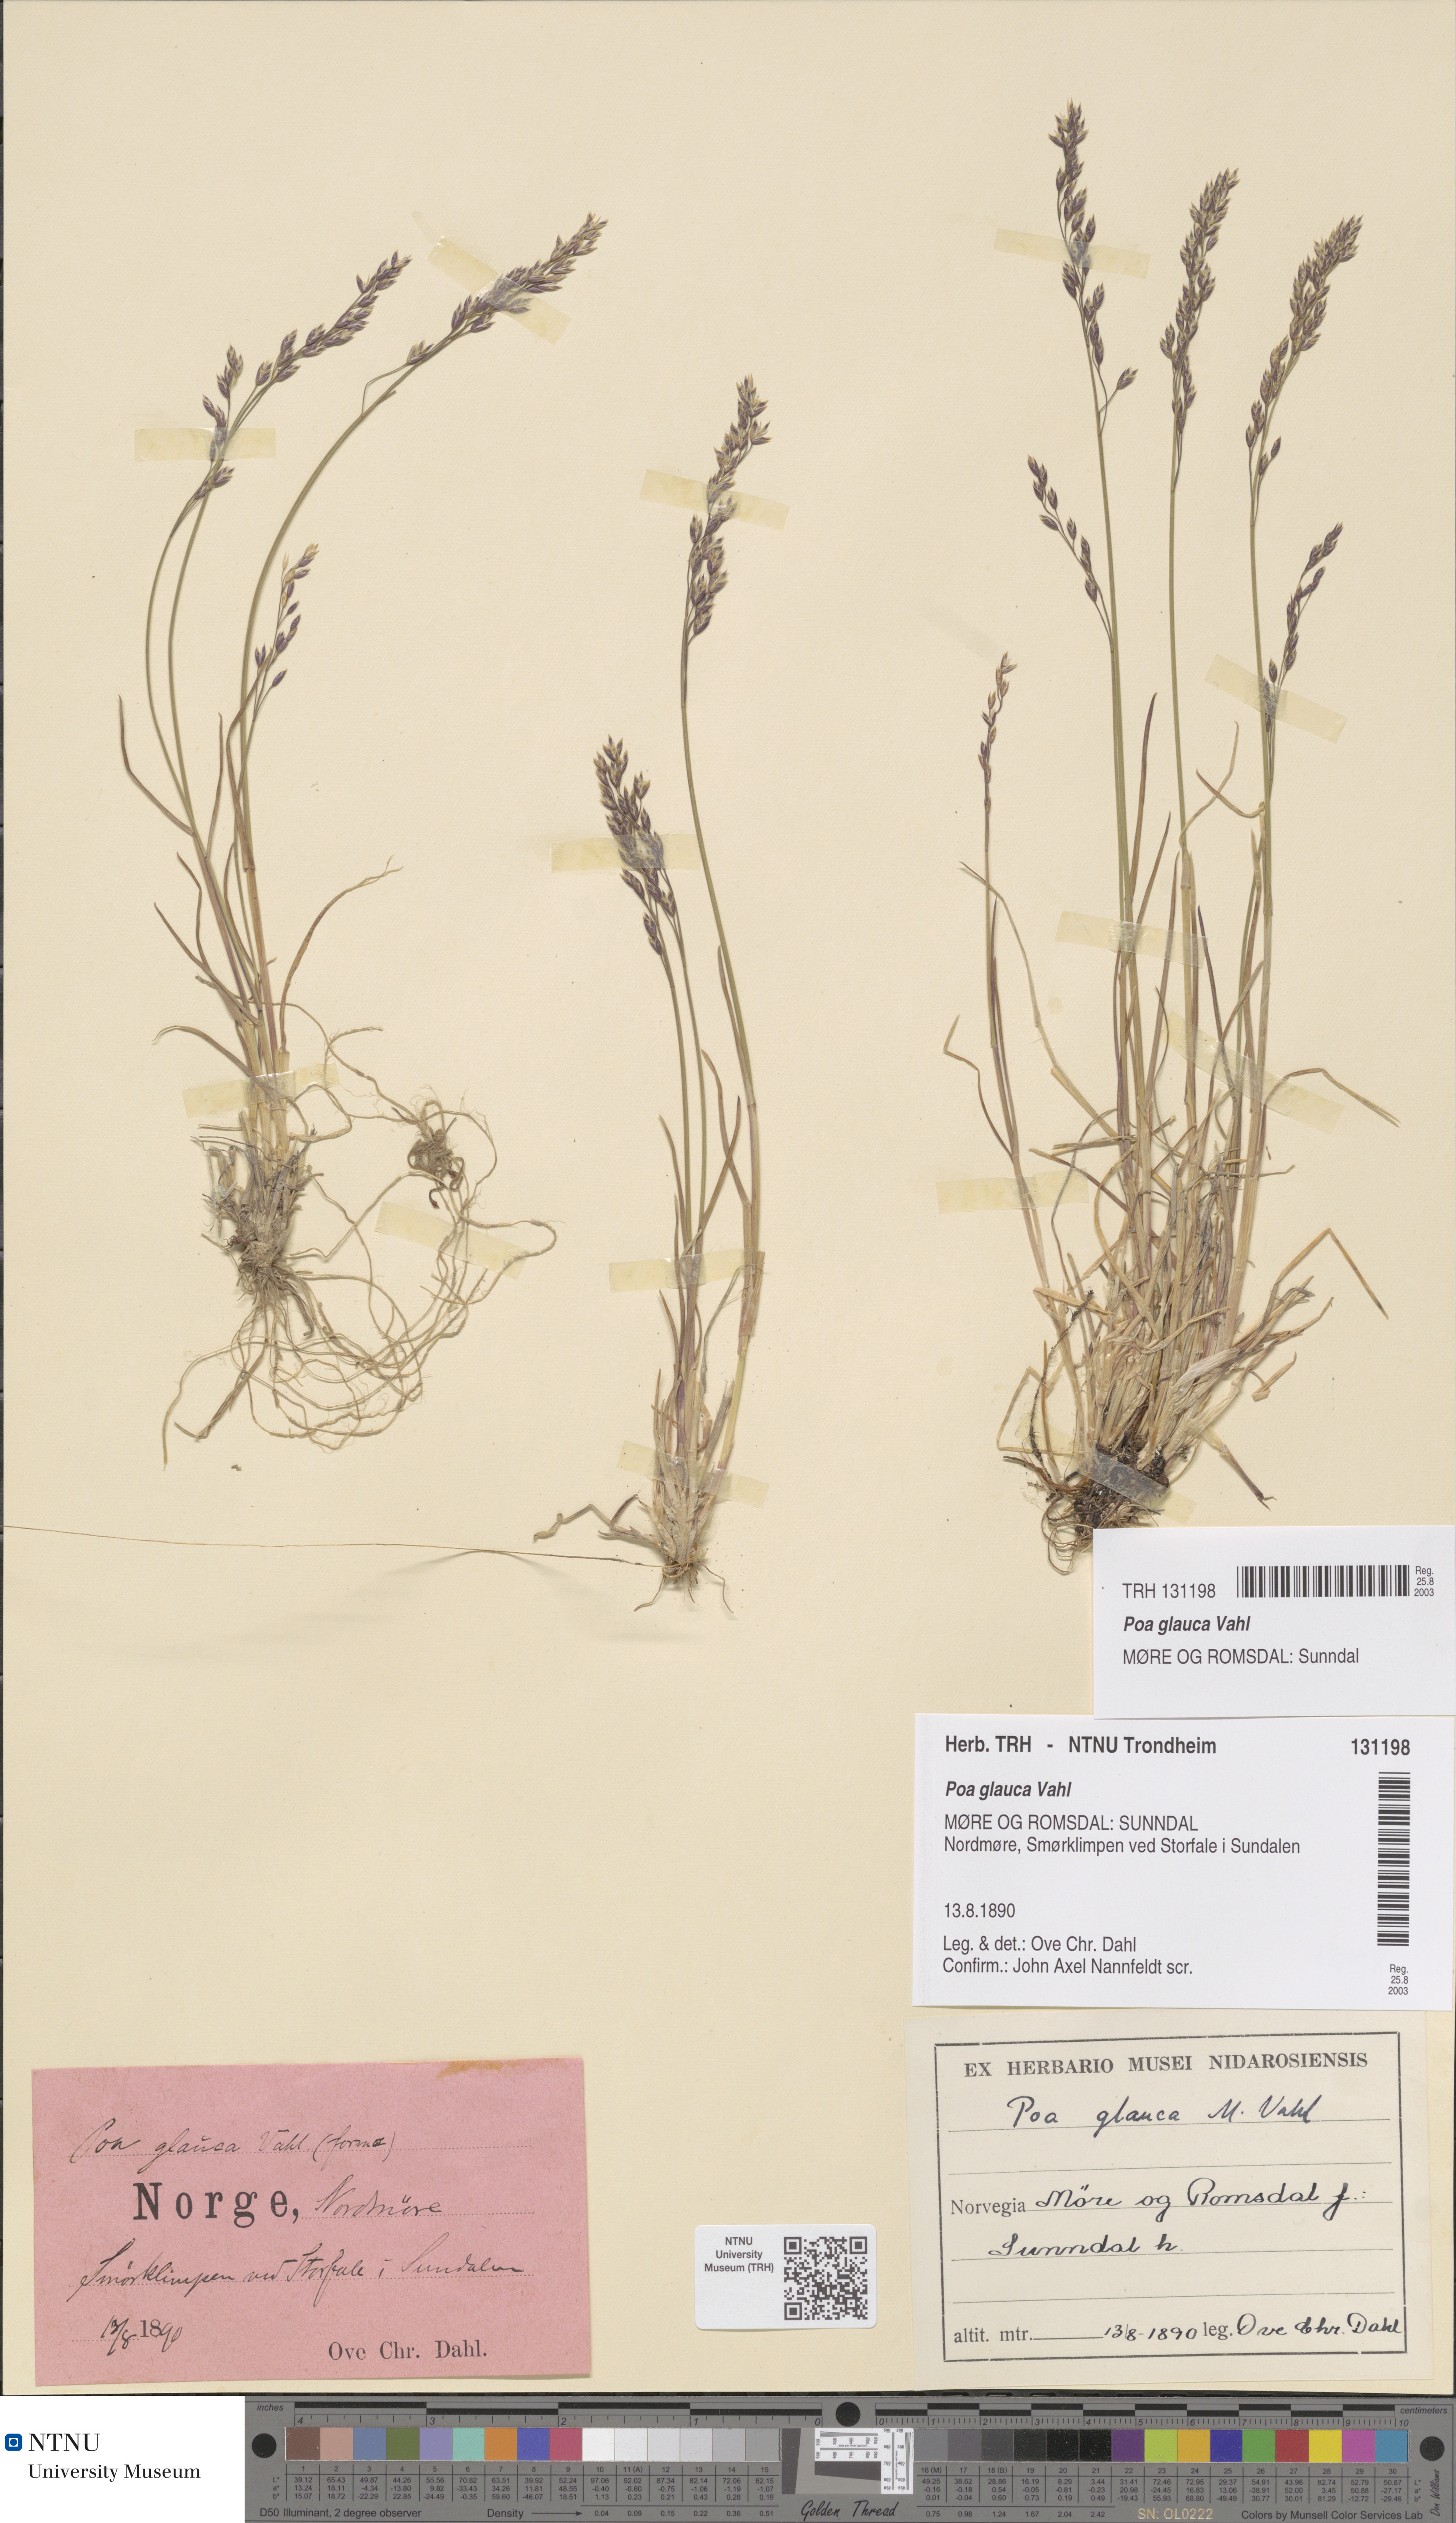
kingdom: Plantae
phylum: Tracheophyta
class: Liliopsida
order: Poales
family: Poaceae
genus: Poa
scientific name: Poa glauca
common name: Glaucous bluegrass
